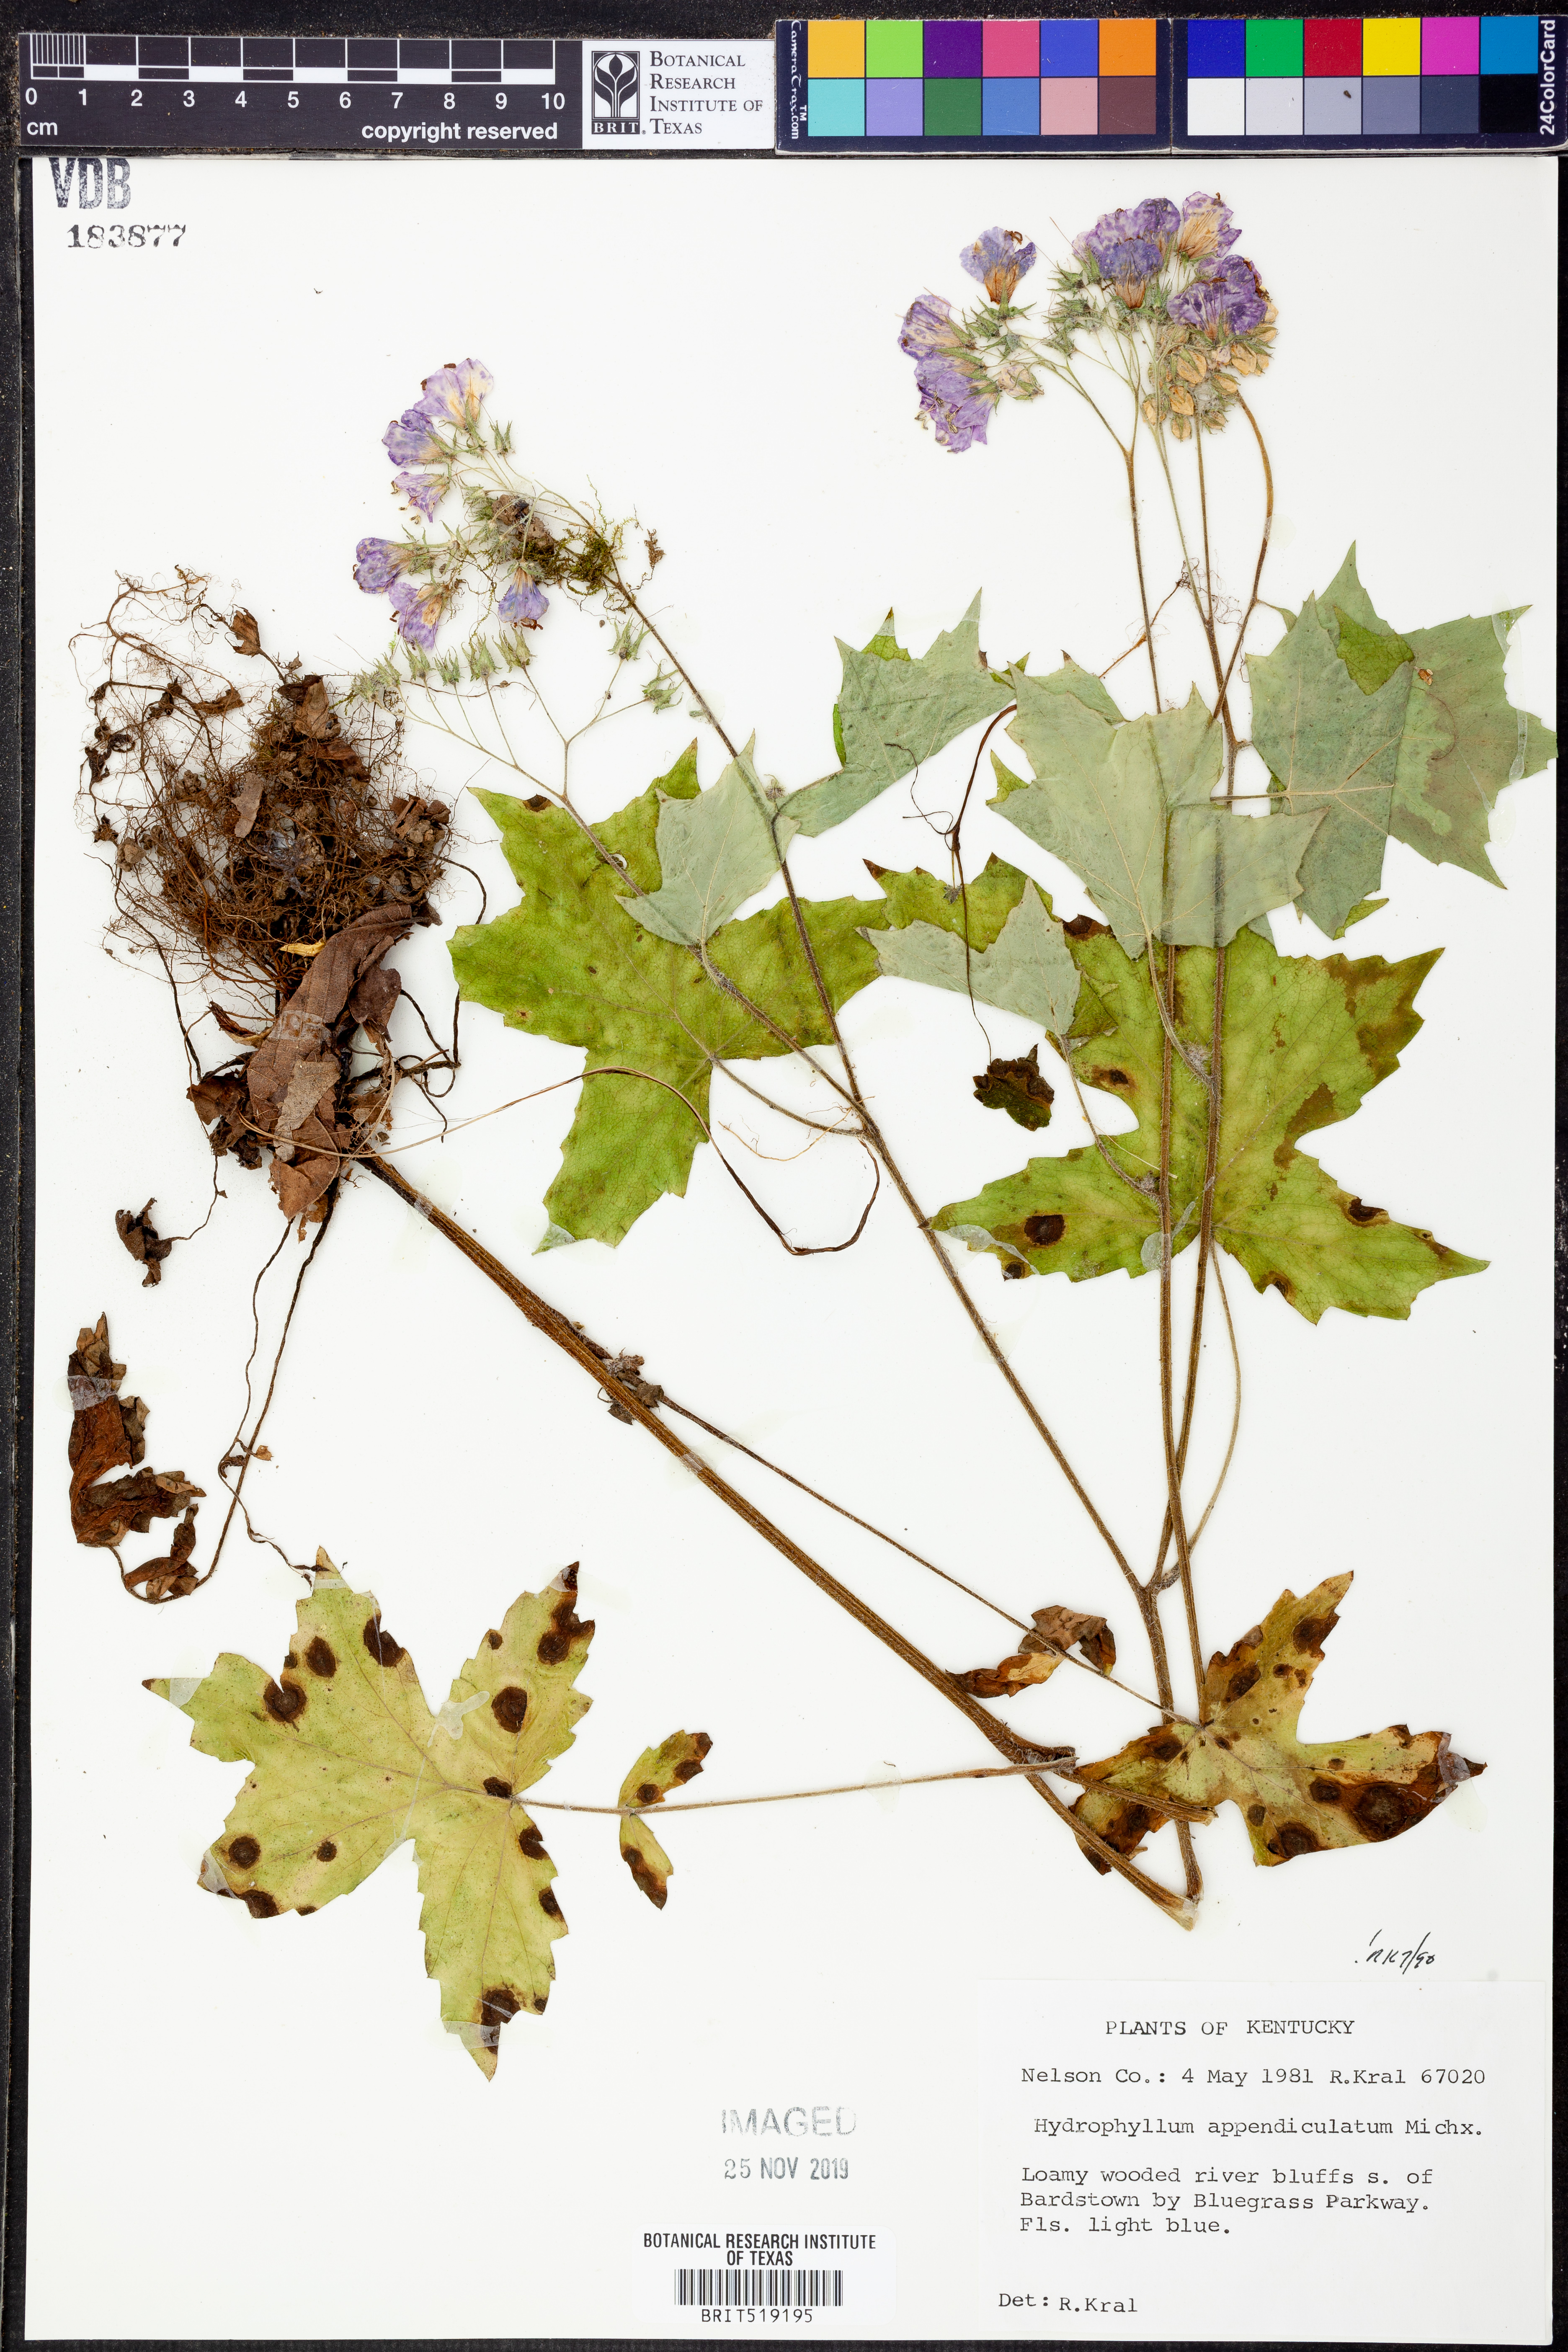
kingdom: Plantae
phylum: Tracheophyta
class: Magnoliopsida
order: Boraginales
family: Hydrophyllaceae
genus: Hydrophyllum
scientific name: Hydrophyllum appendiculatum
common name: Appendaged waterleaf
